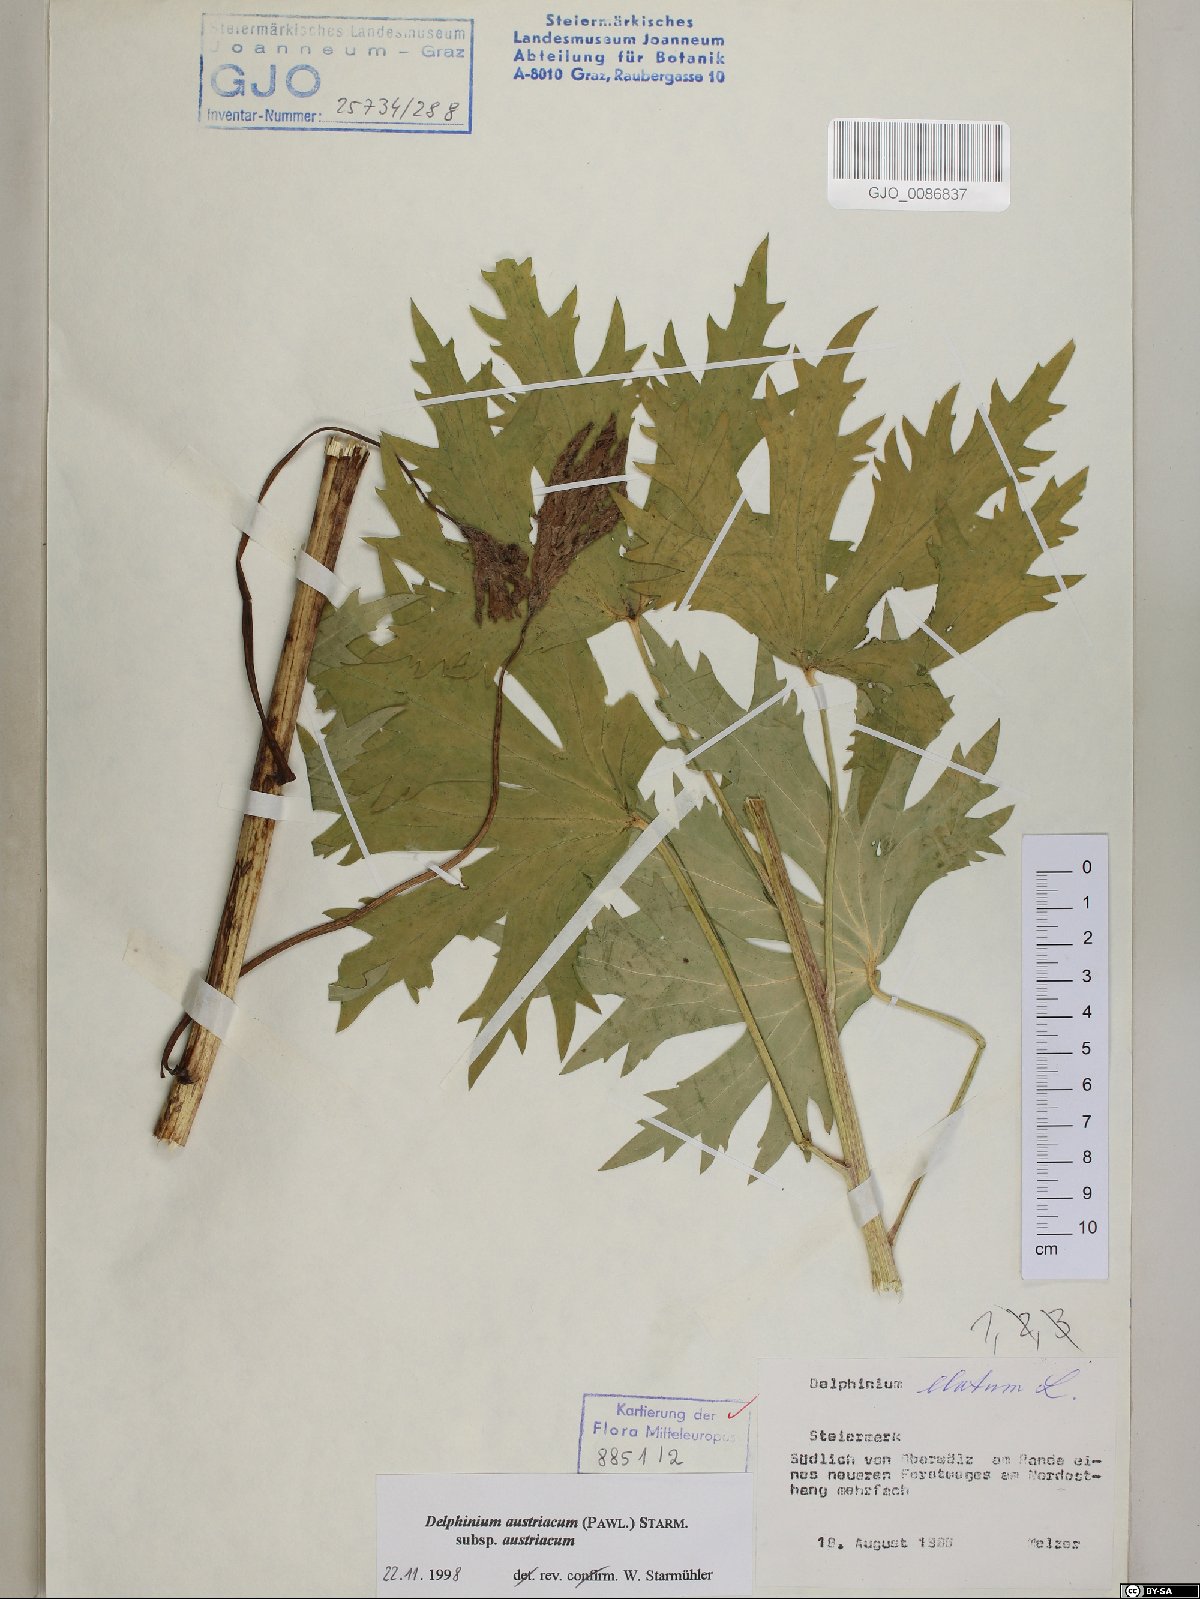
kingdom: Plantae
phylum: Tracheophyta
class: Magnoliopsida
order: Ranunculales
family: Ranunculaceae
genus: Delphinium
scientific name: Delphinium austriacum
